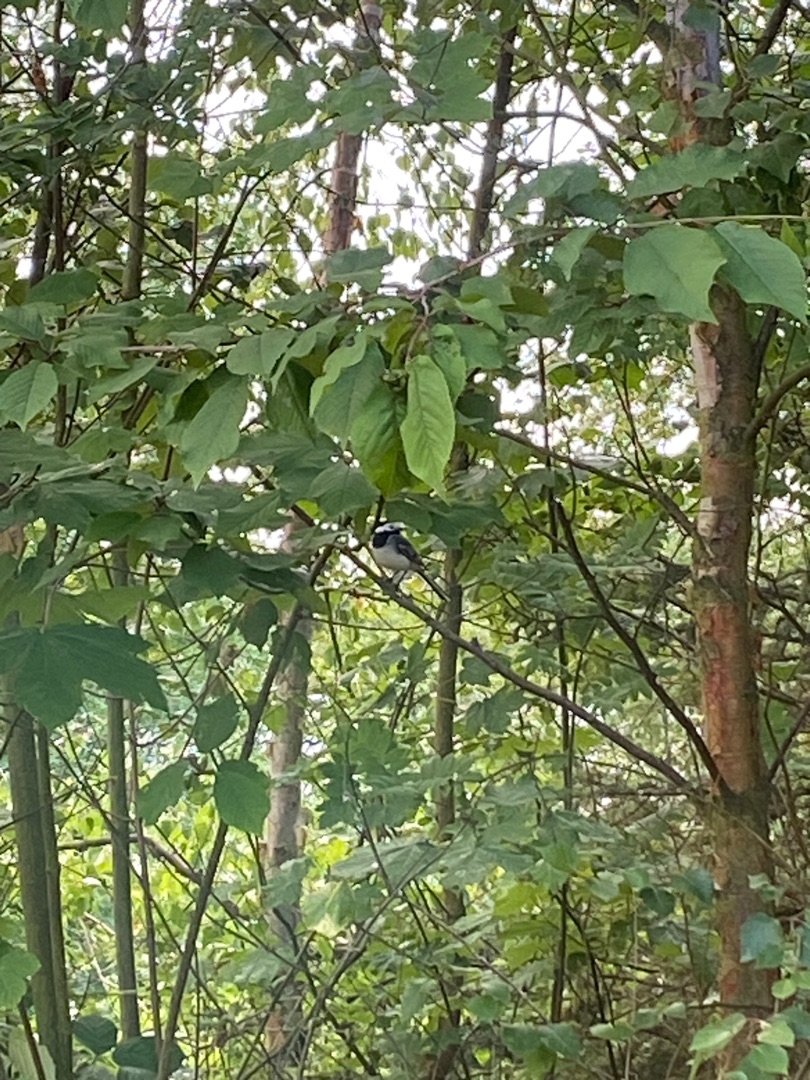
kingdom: Animalia
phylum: Chordata
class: Aves
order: Passeriformes
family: Motacillidae
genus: Motacilla
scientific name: Motacilla alba
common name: Hvid vipstjert
